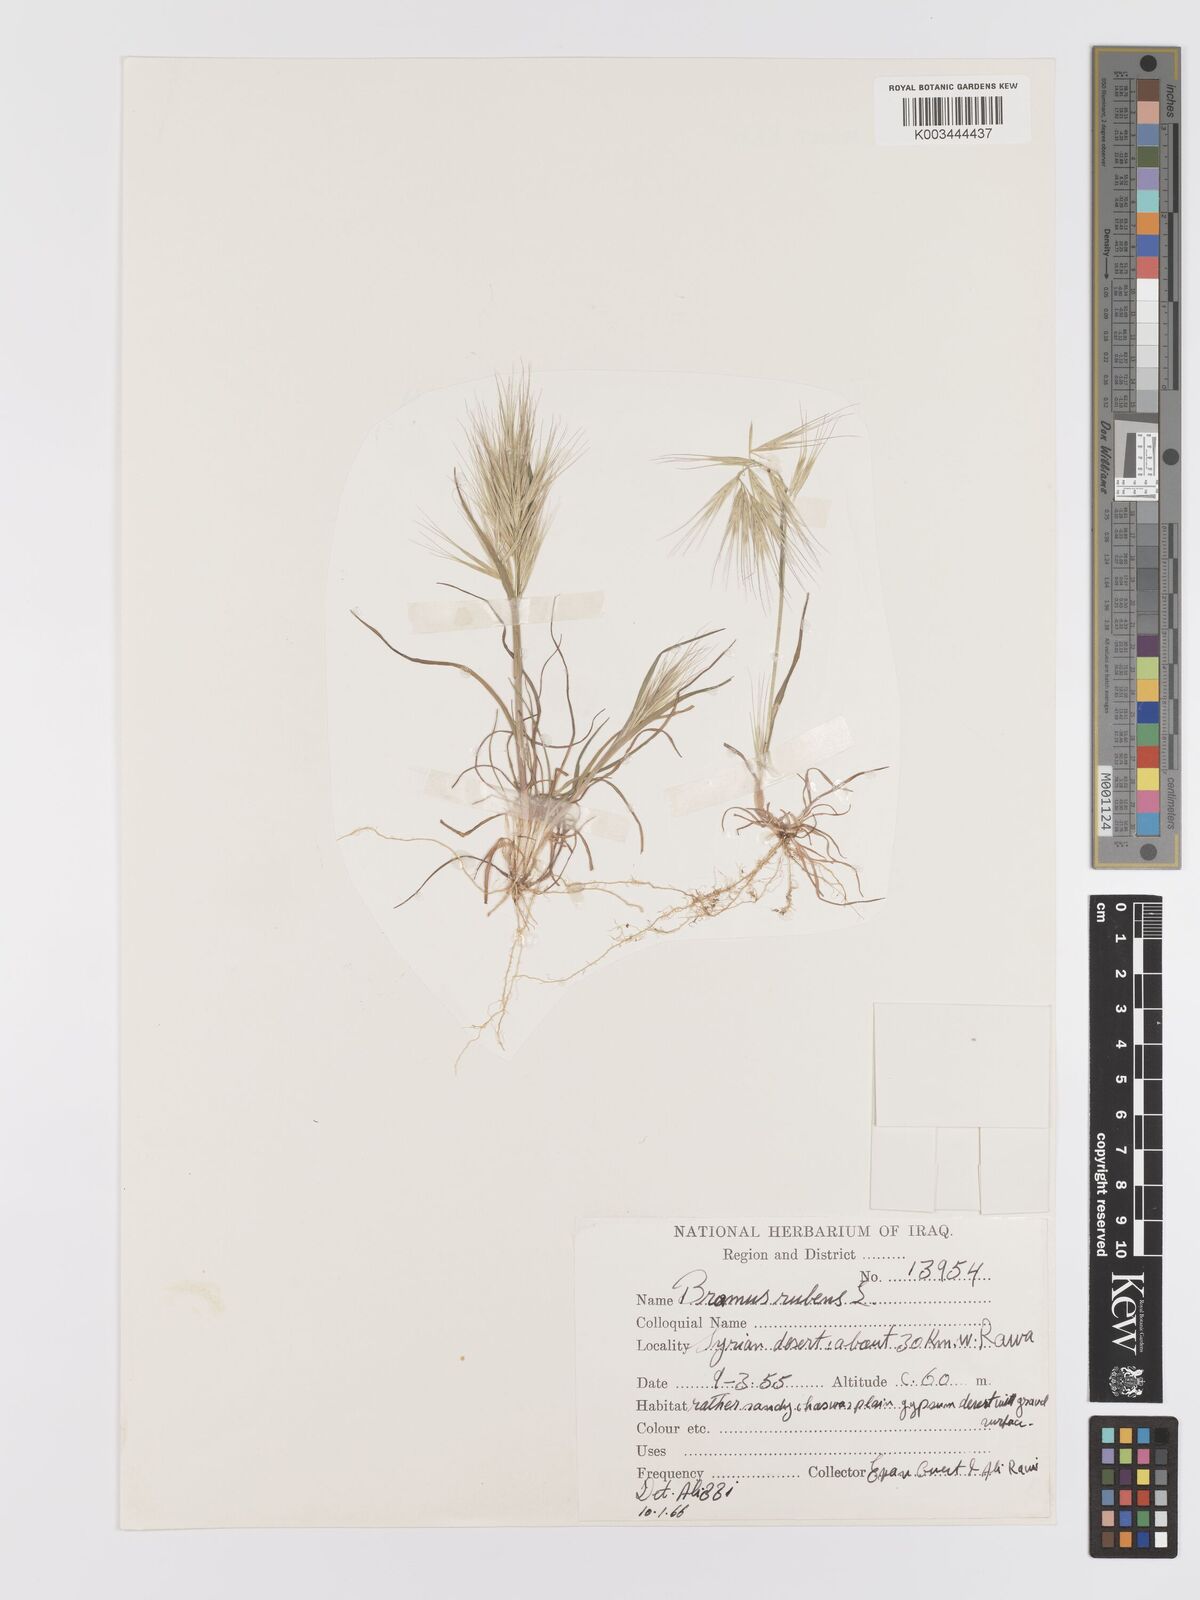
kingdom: Plantae
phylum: Tracheophyta
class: Liliopsida
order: Poales
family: Poaceae
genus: Bromus
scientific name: Bromus rubens
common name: Red brome
